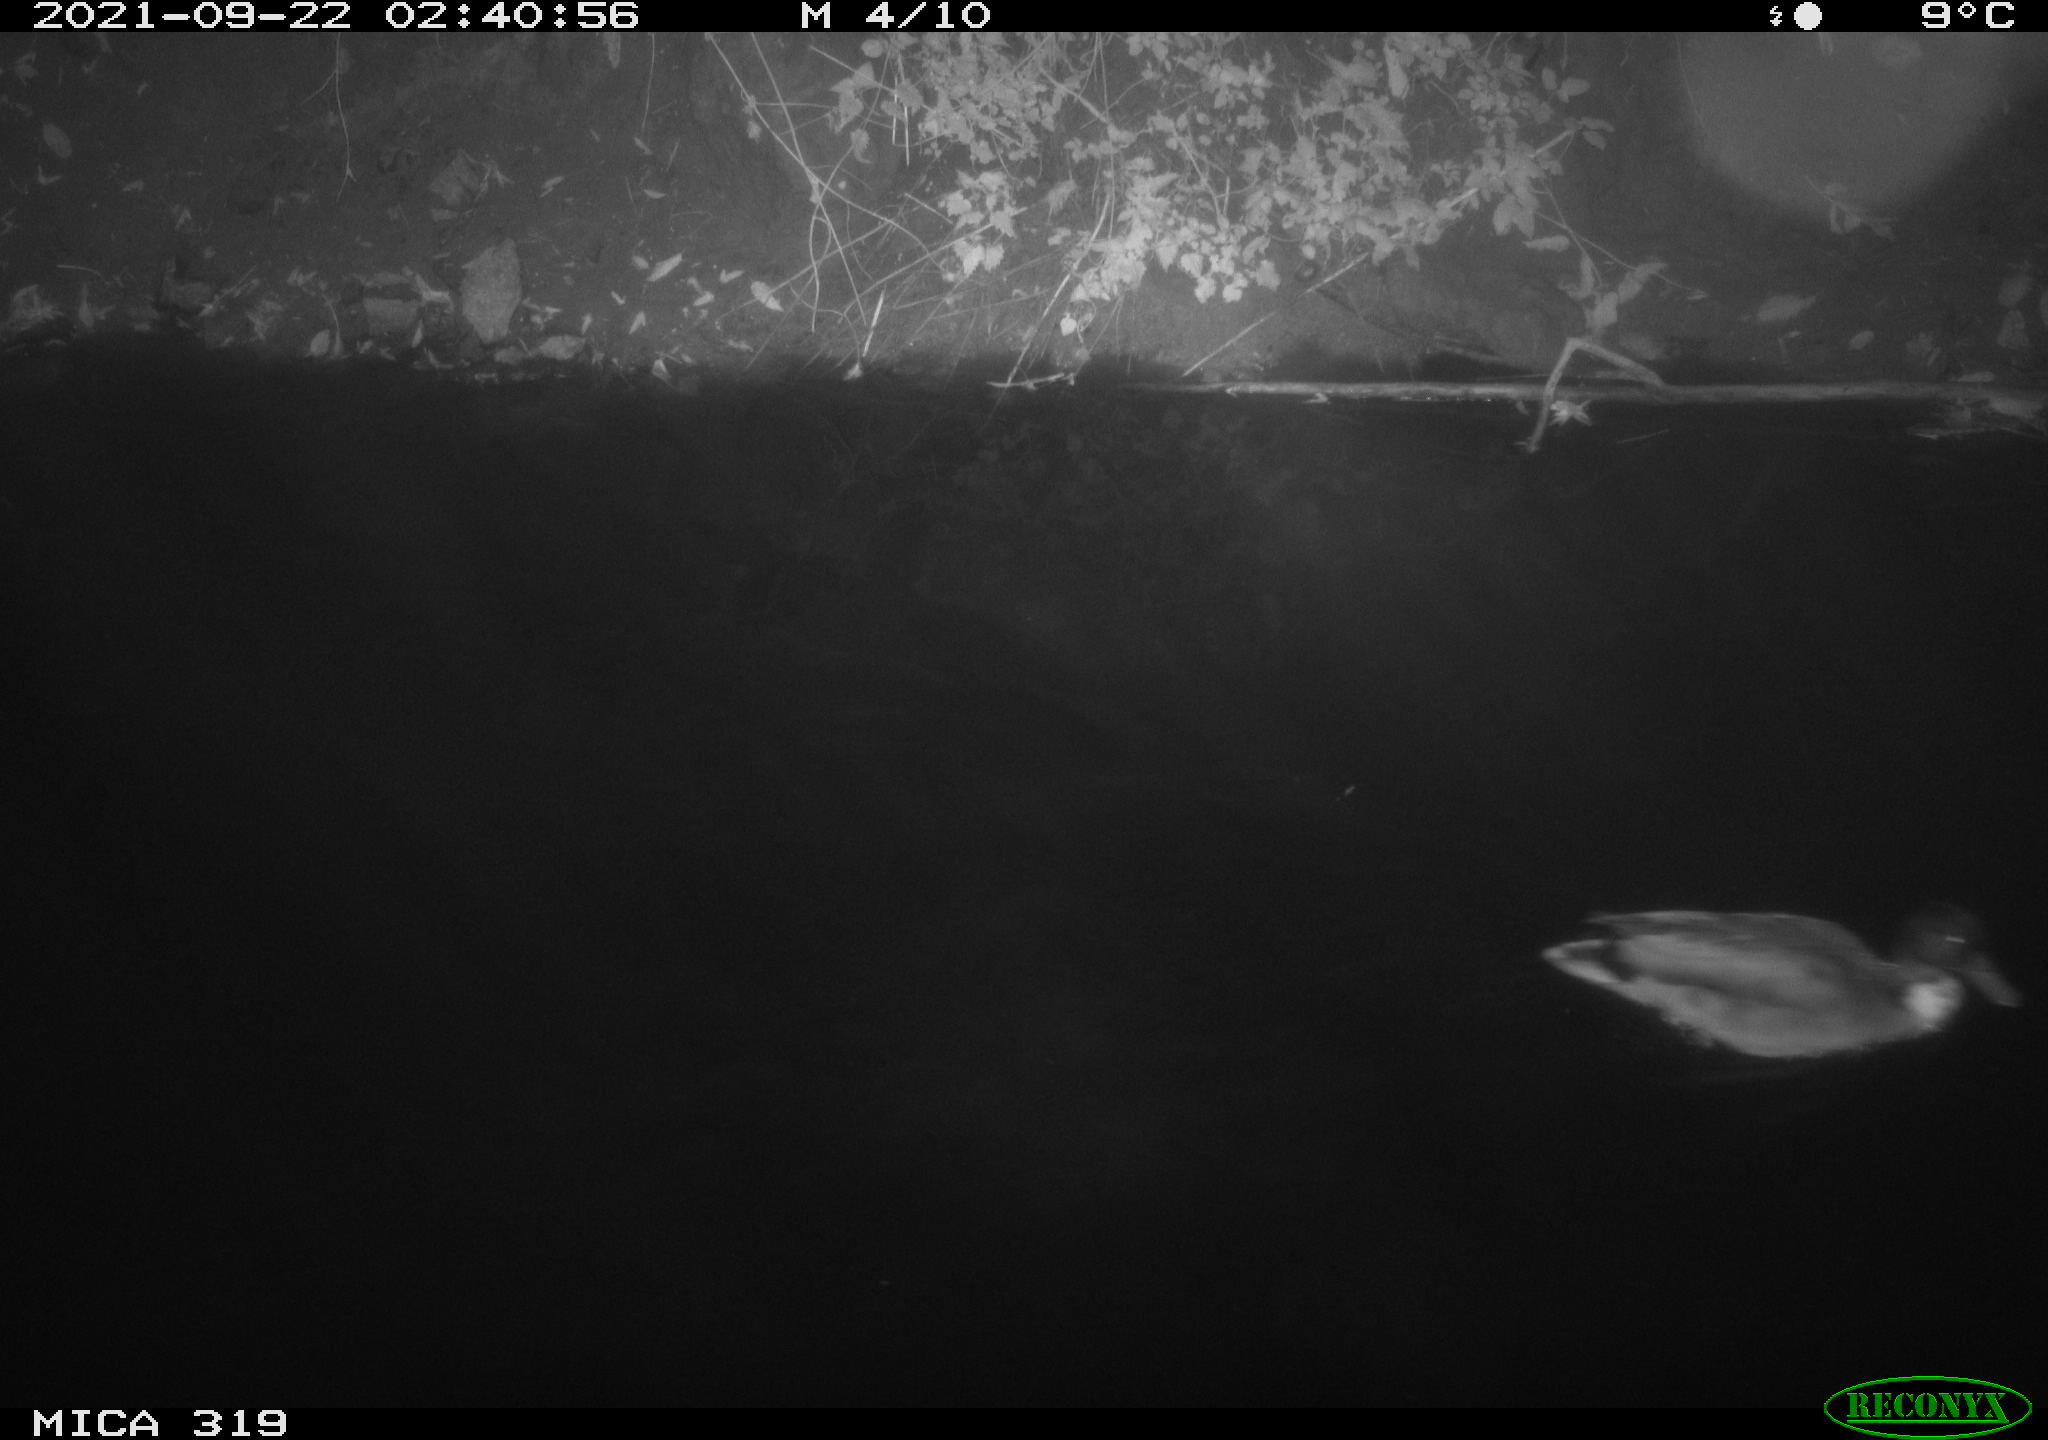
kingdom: Animalia
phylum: Chordata
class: Aves
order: Anseriformes
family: Anatidae
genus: Anas
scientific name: Anas platyrhynchos
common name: Mallard
